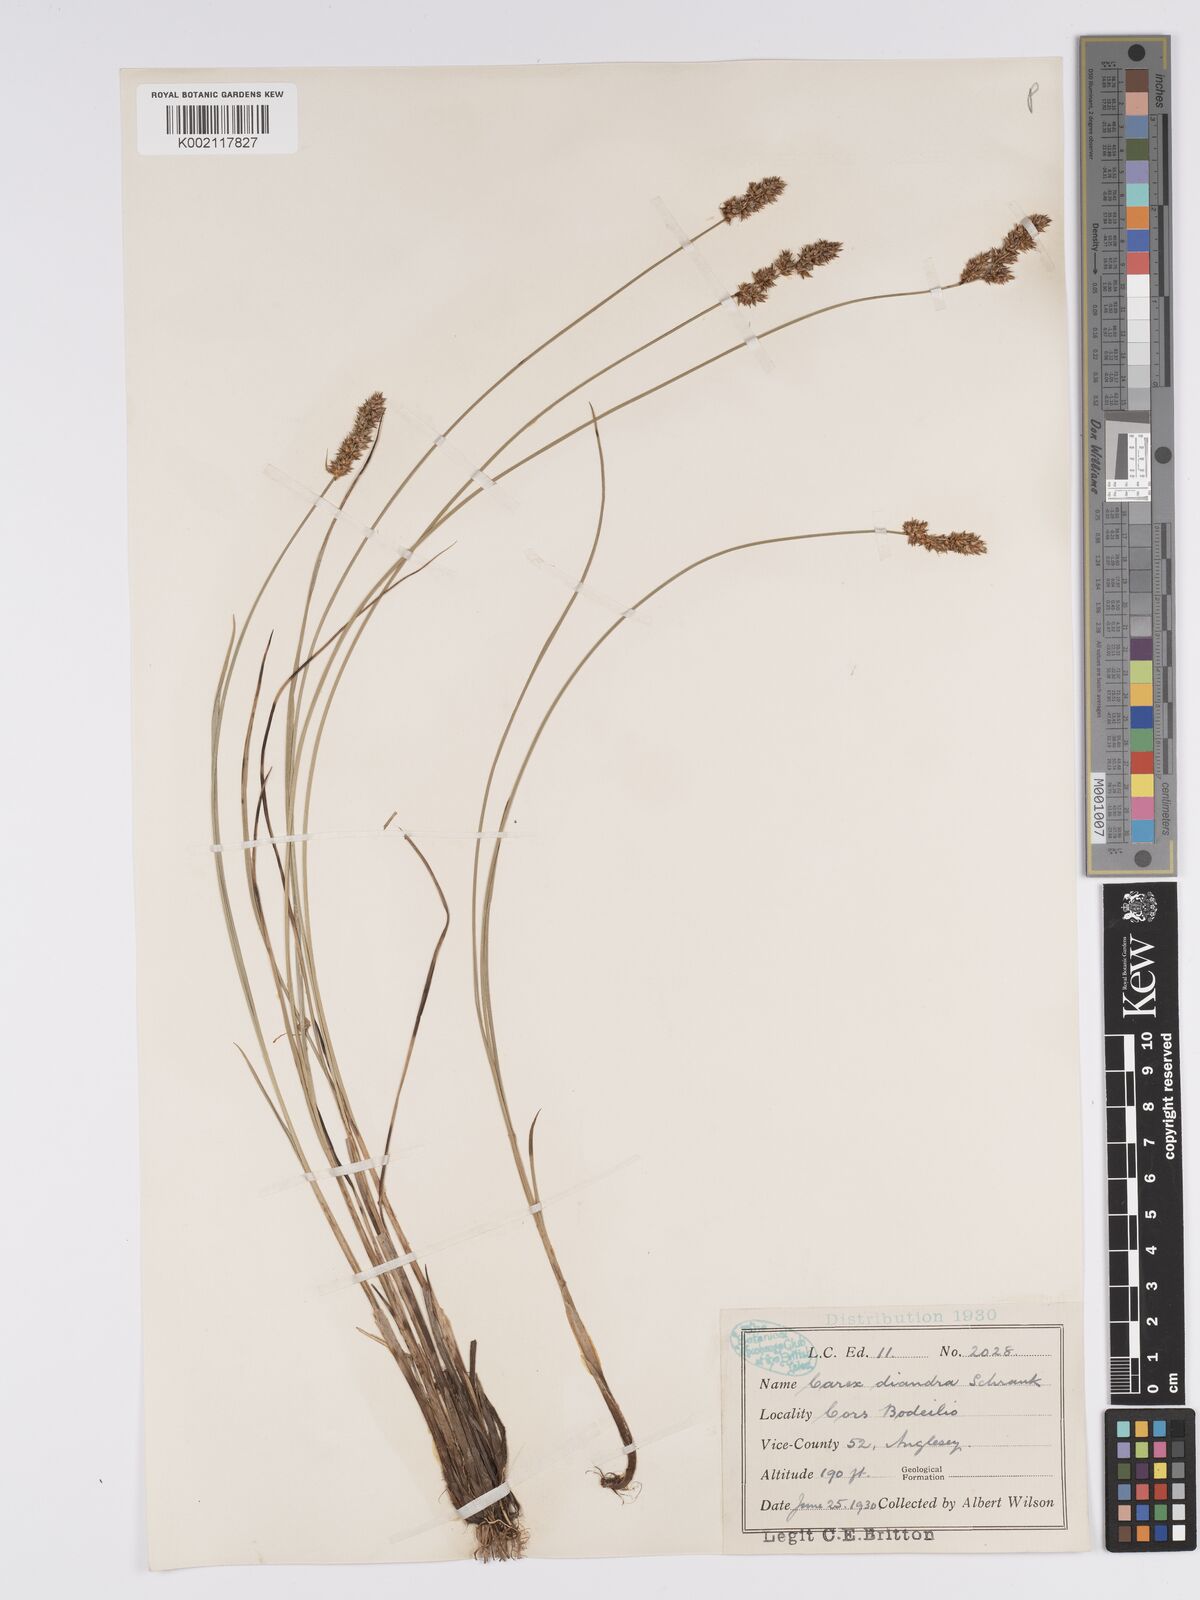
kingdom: Plantae
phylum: Tracheophyta
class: Liliopsida
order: Poales
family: Cyperaceae
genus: Carex
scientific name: Carex diandra
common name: Lesser tussock-sedge
